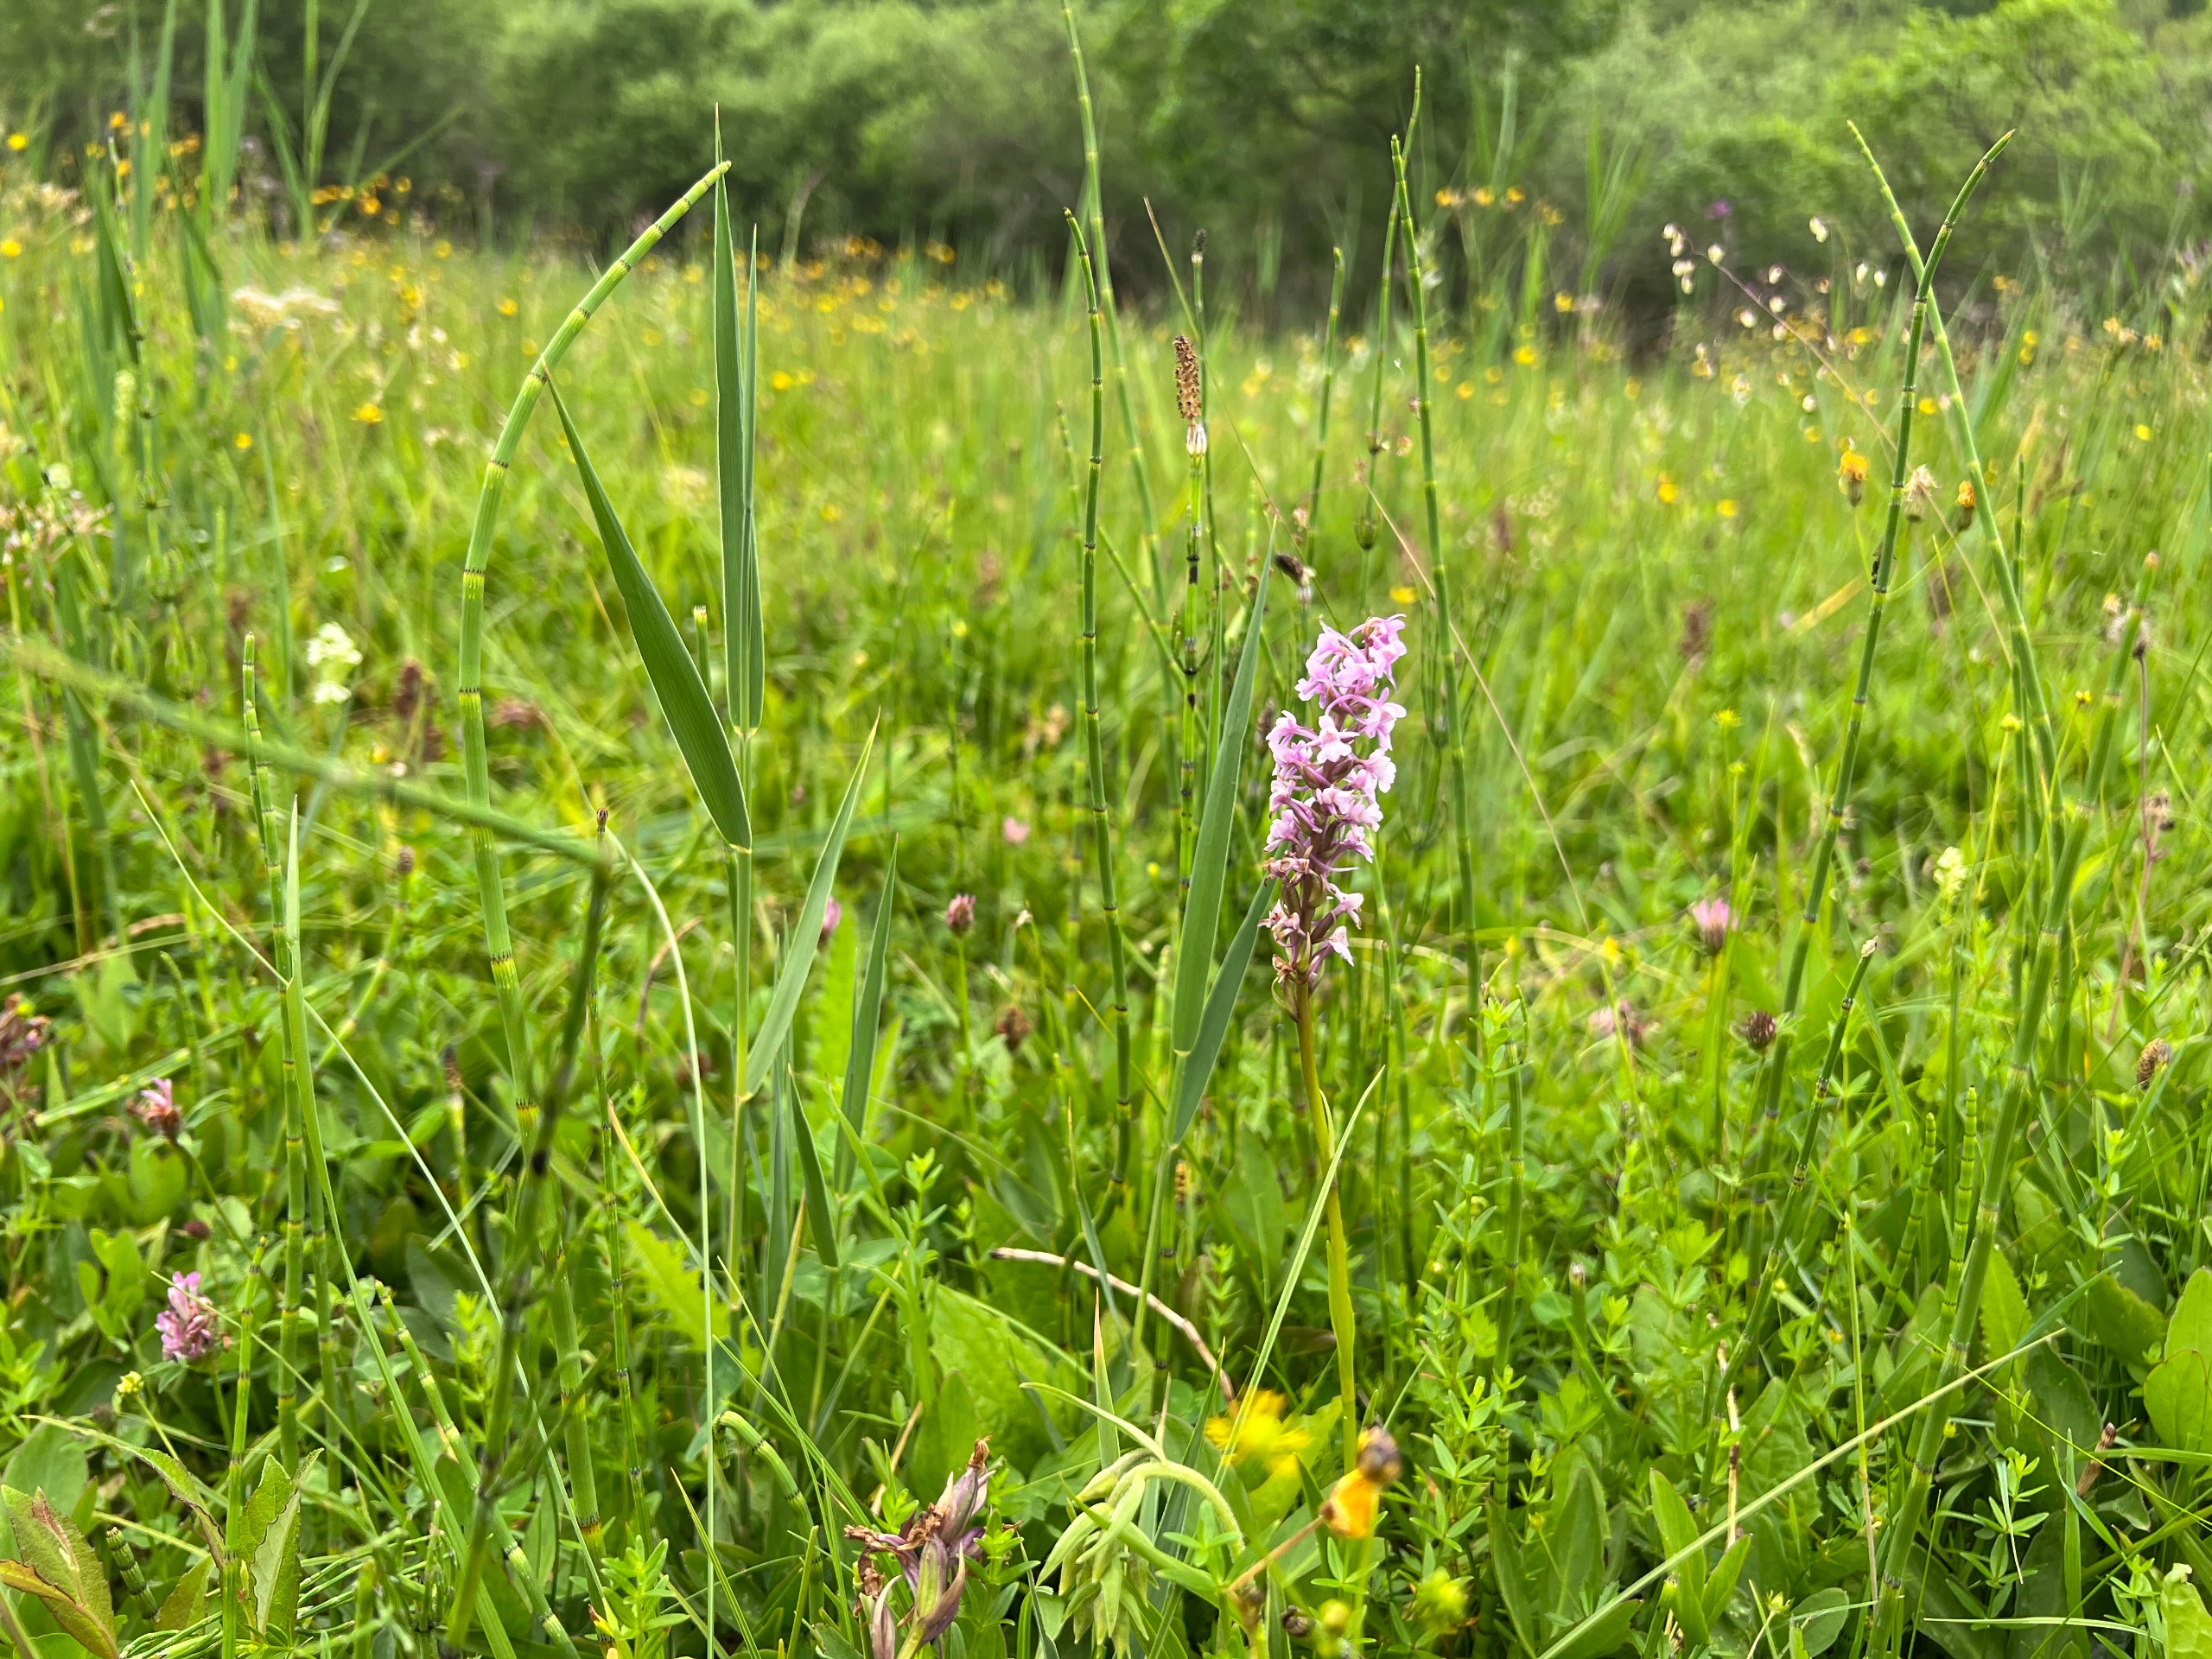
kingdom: Plantae
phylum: Tracheophyta
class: Liliopsida
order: Asparagales
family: Orchidaceae
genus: Gymnadenia
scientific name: Gymnadenia conopsea
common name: Langakset trådspore
